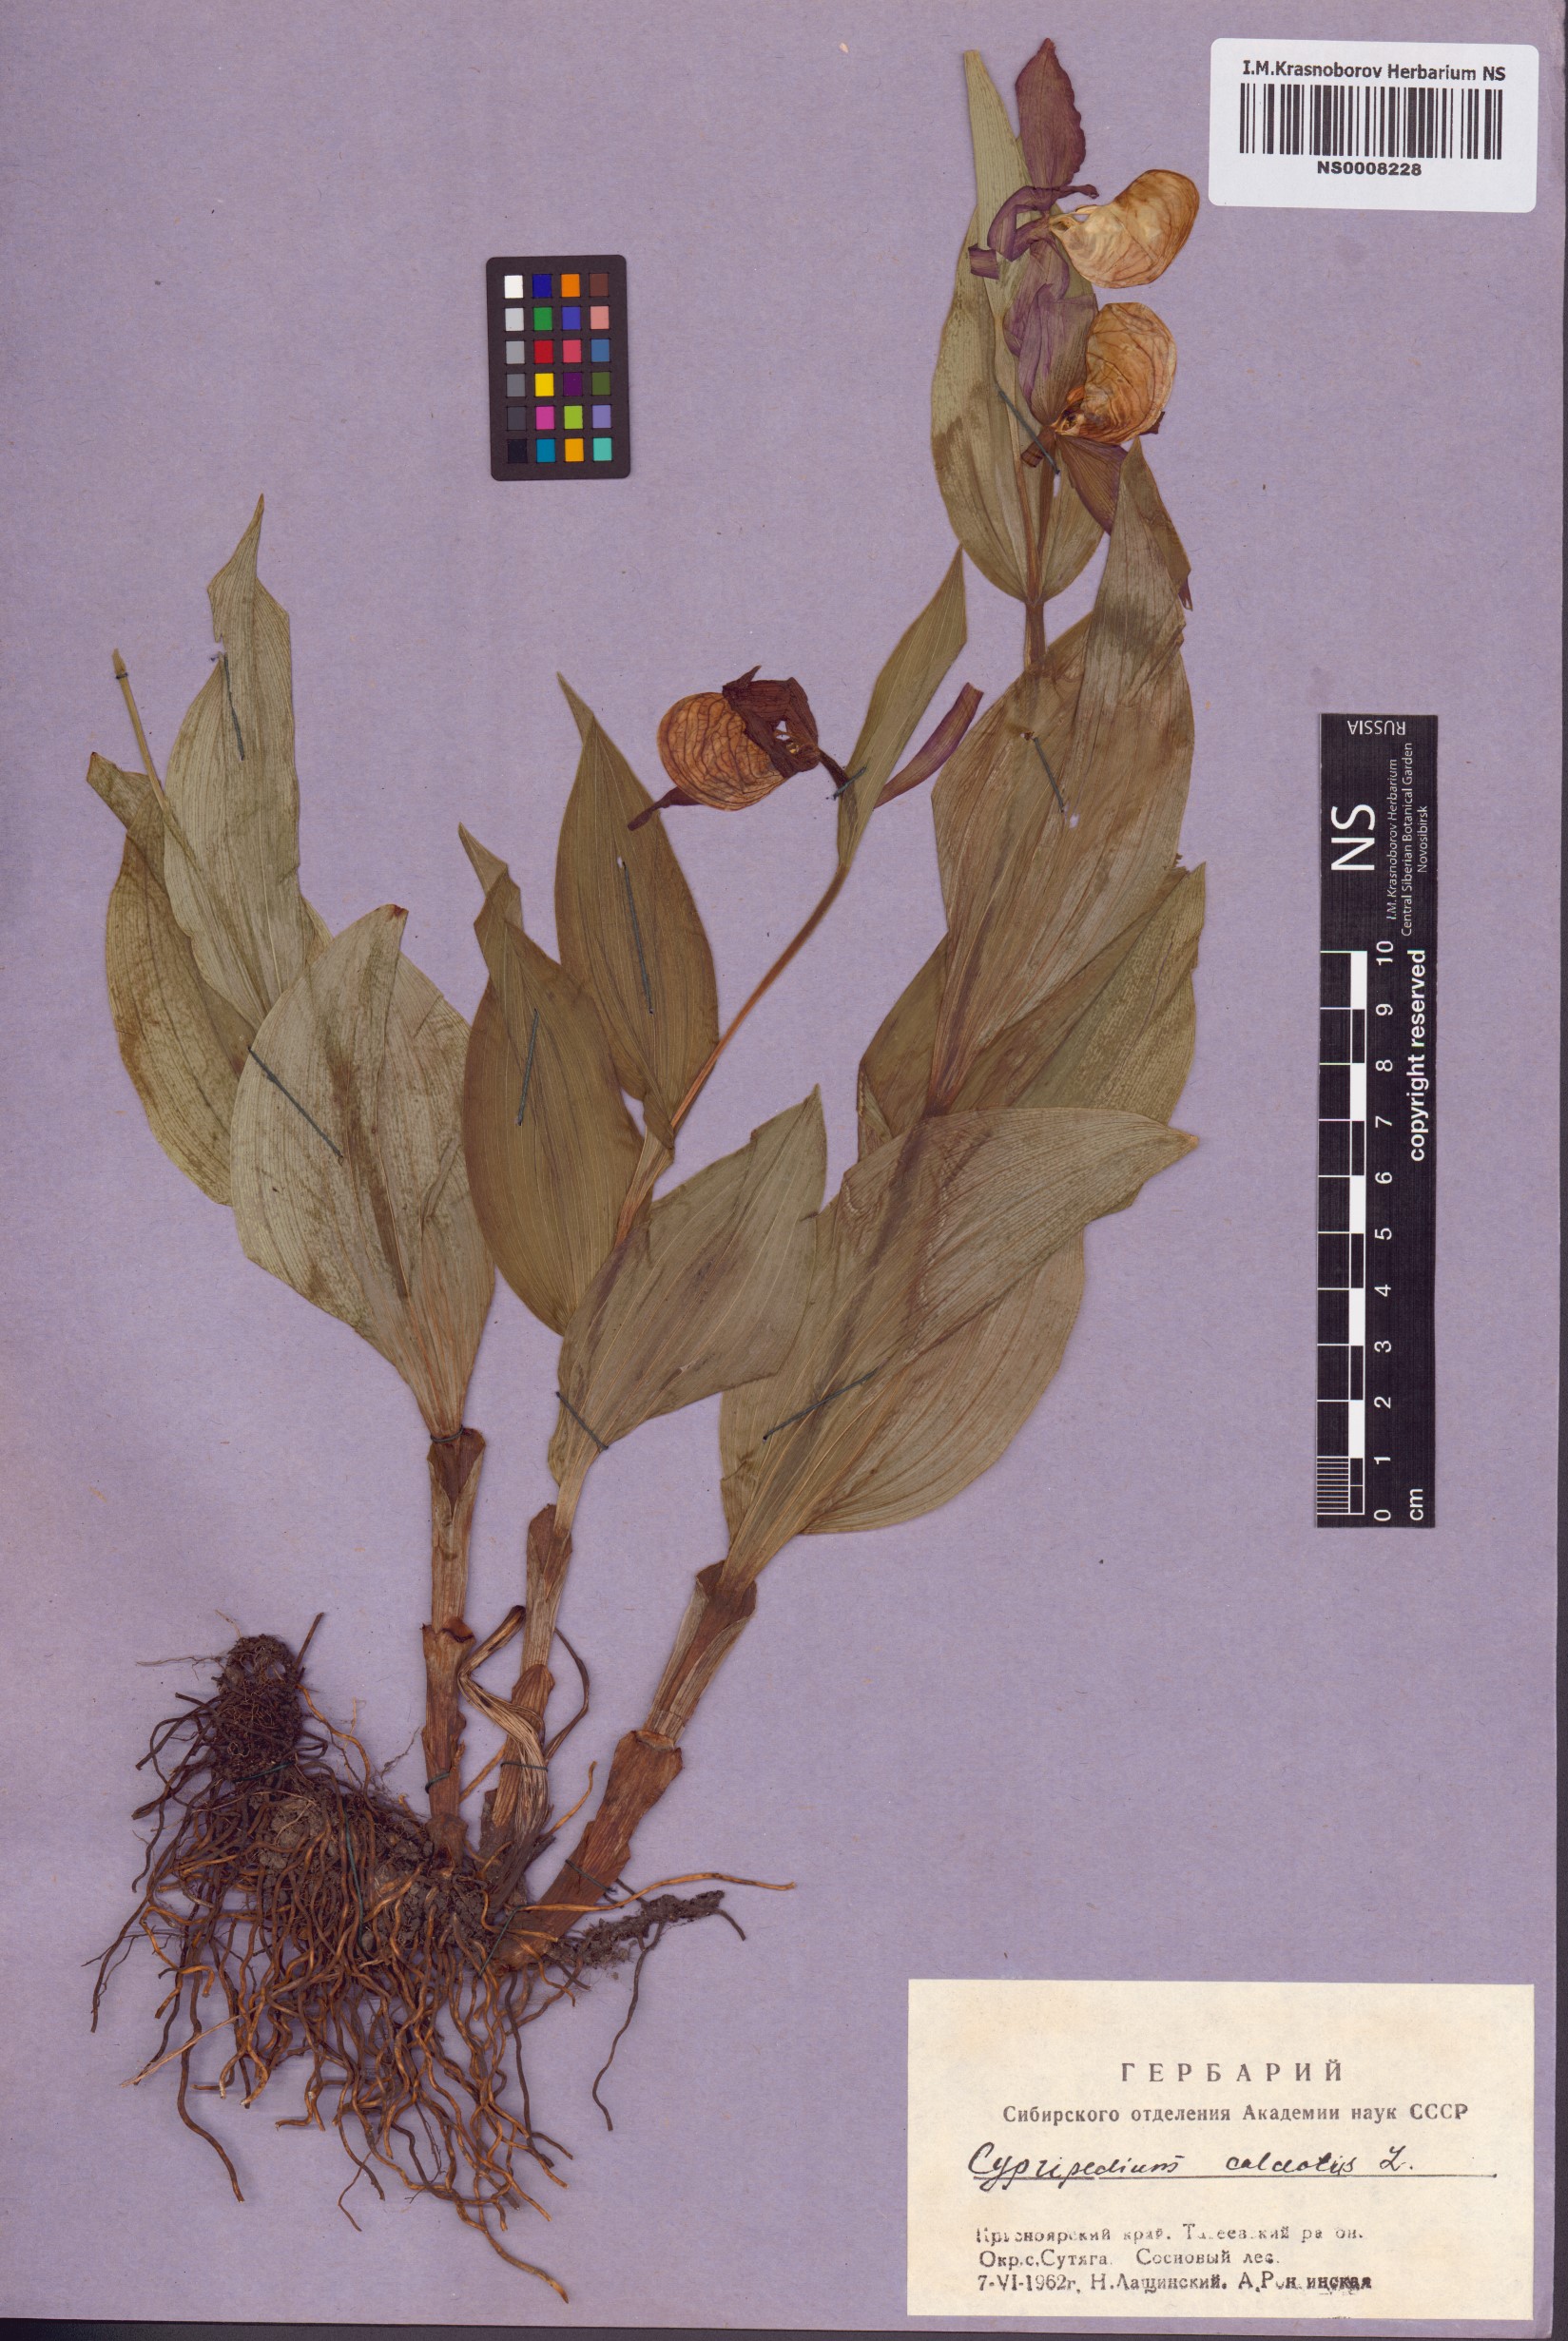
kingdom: Plantae
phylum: Tracheophyta
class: Liliopsida
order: Asparagales
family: Orchidaceae
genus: Cypripedium
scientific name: Cypripedium calceolus
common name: Lady's-slipper
